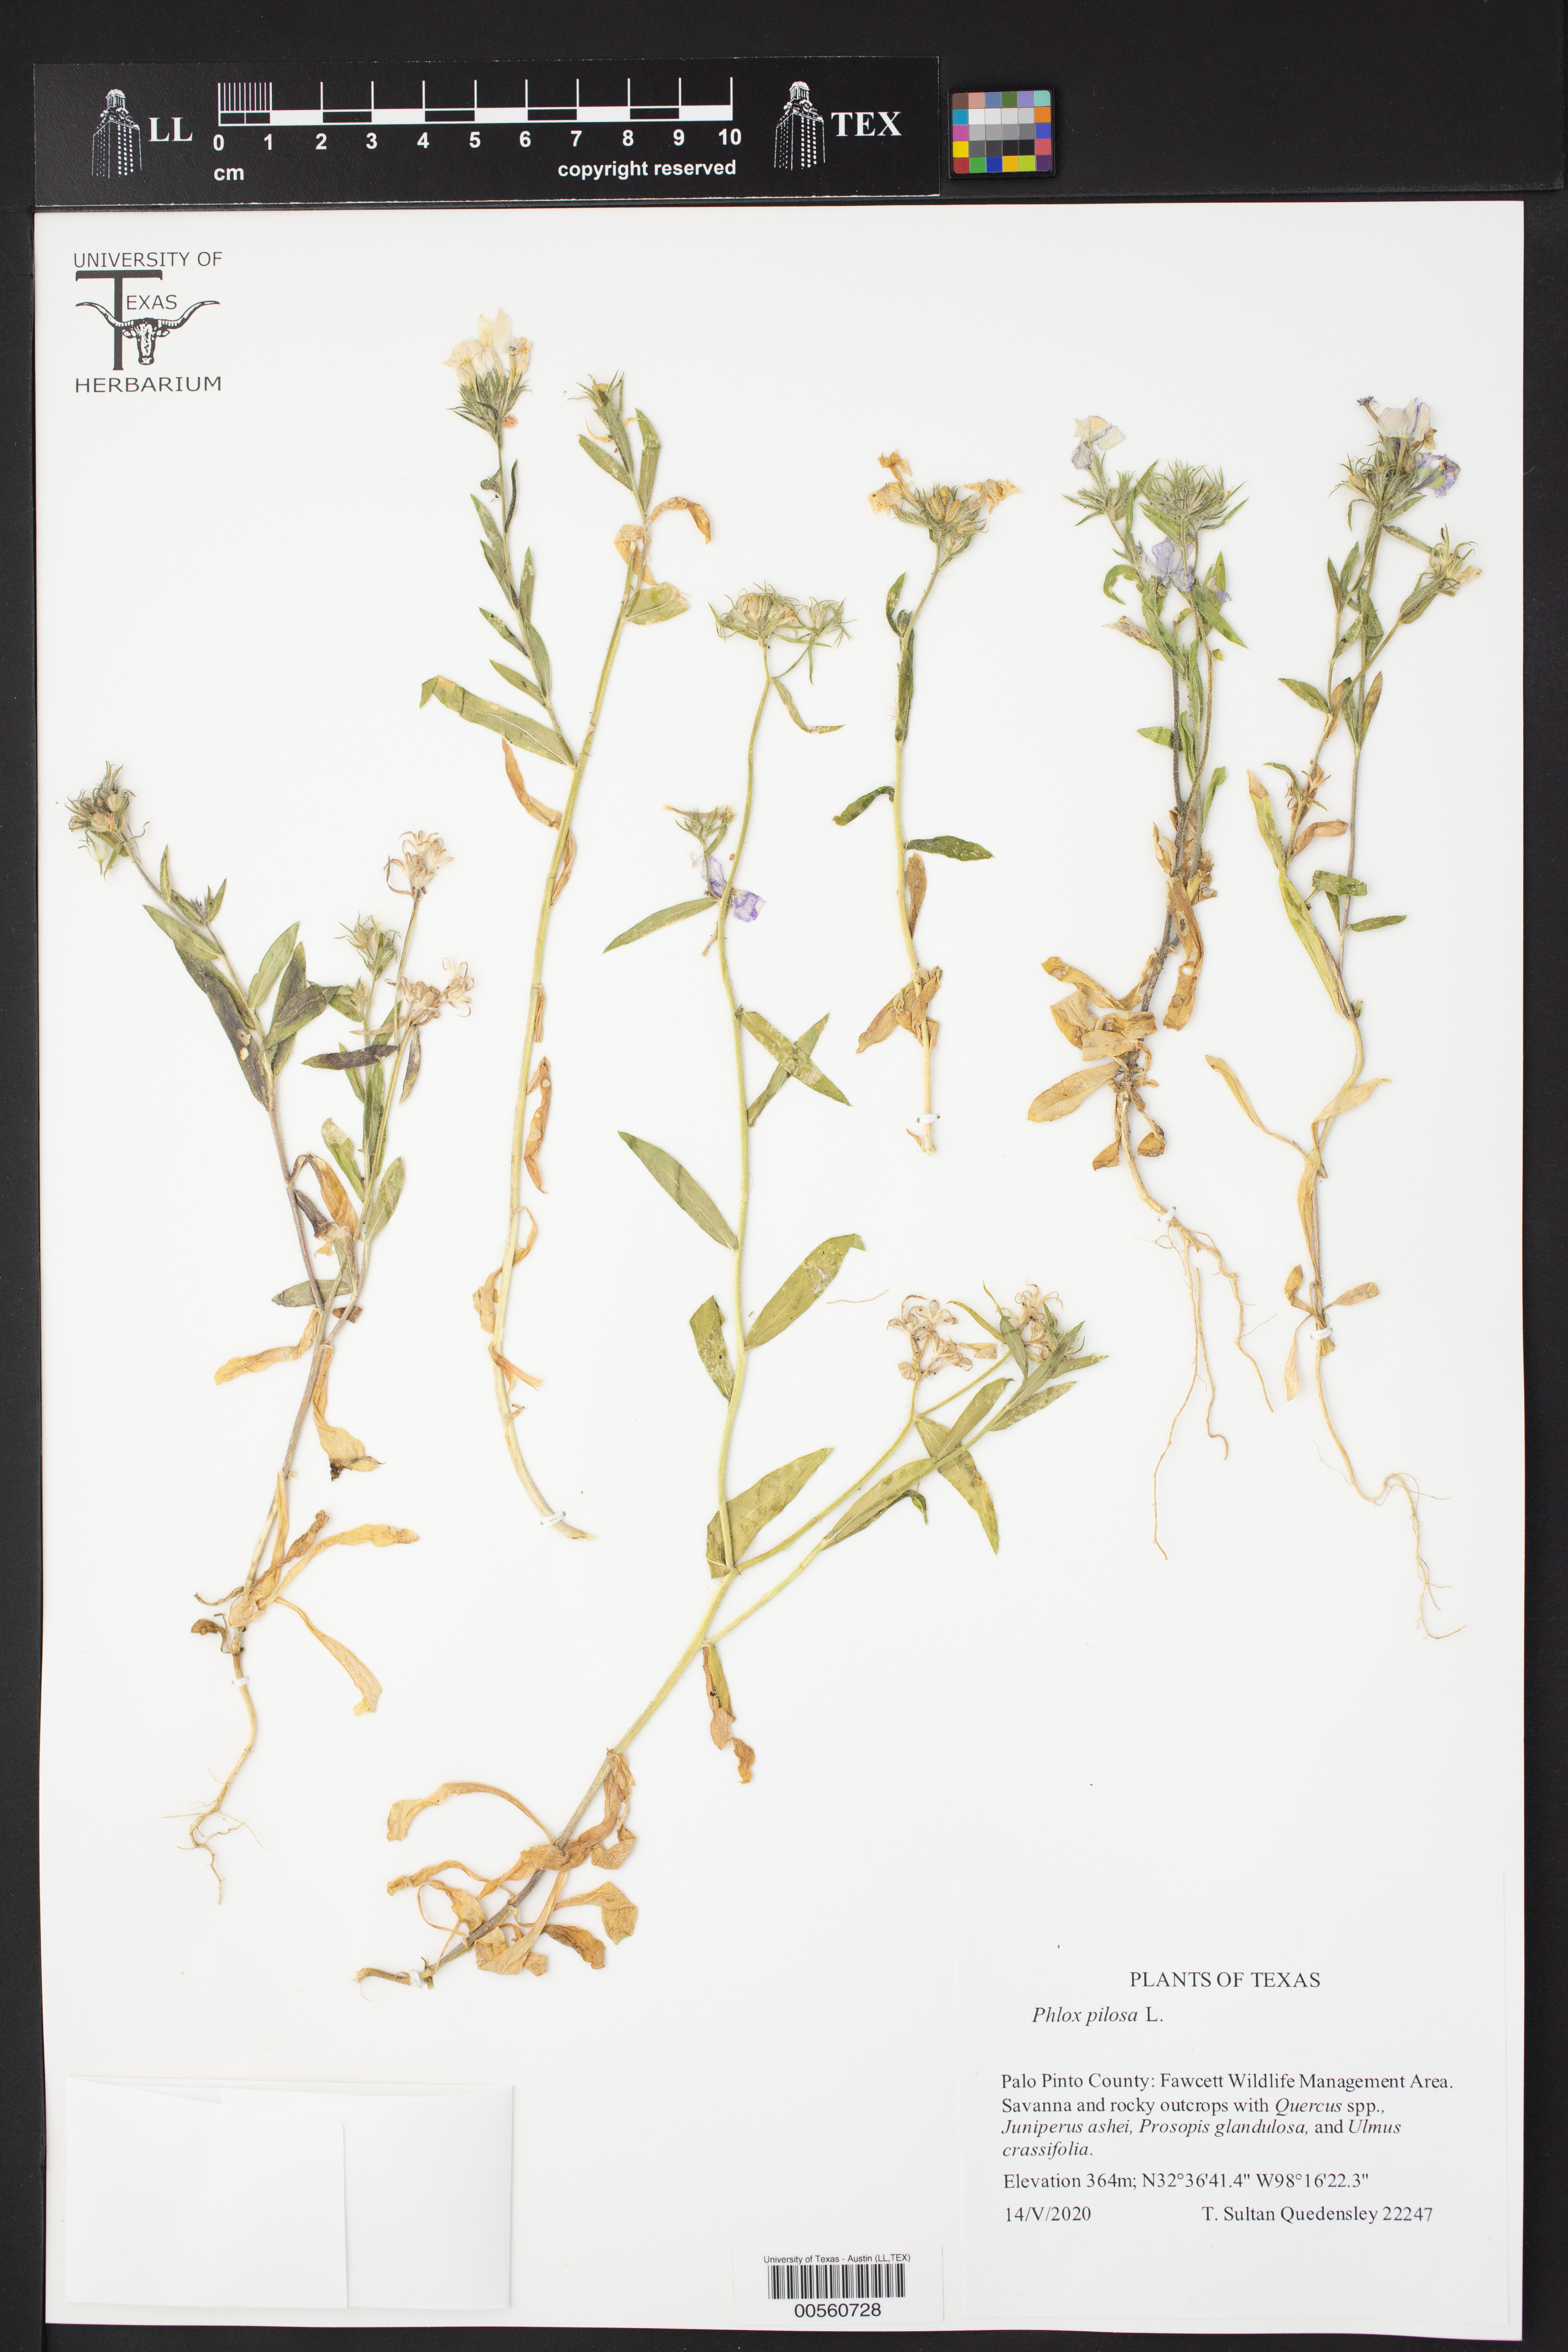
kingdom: Plantae
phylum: Tracheophyta
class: Magnoliopsida
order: Ericales
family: Polemoniaceae
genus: Phlox
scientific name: Phlox pilosa
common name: Prairie phlox
